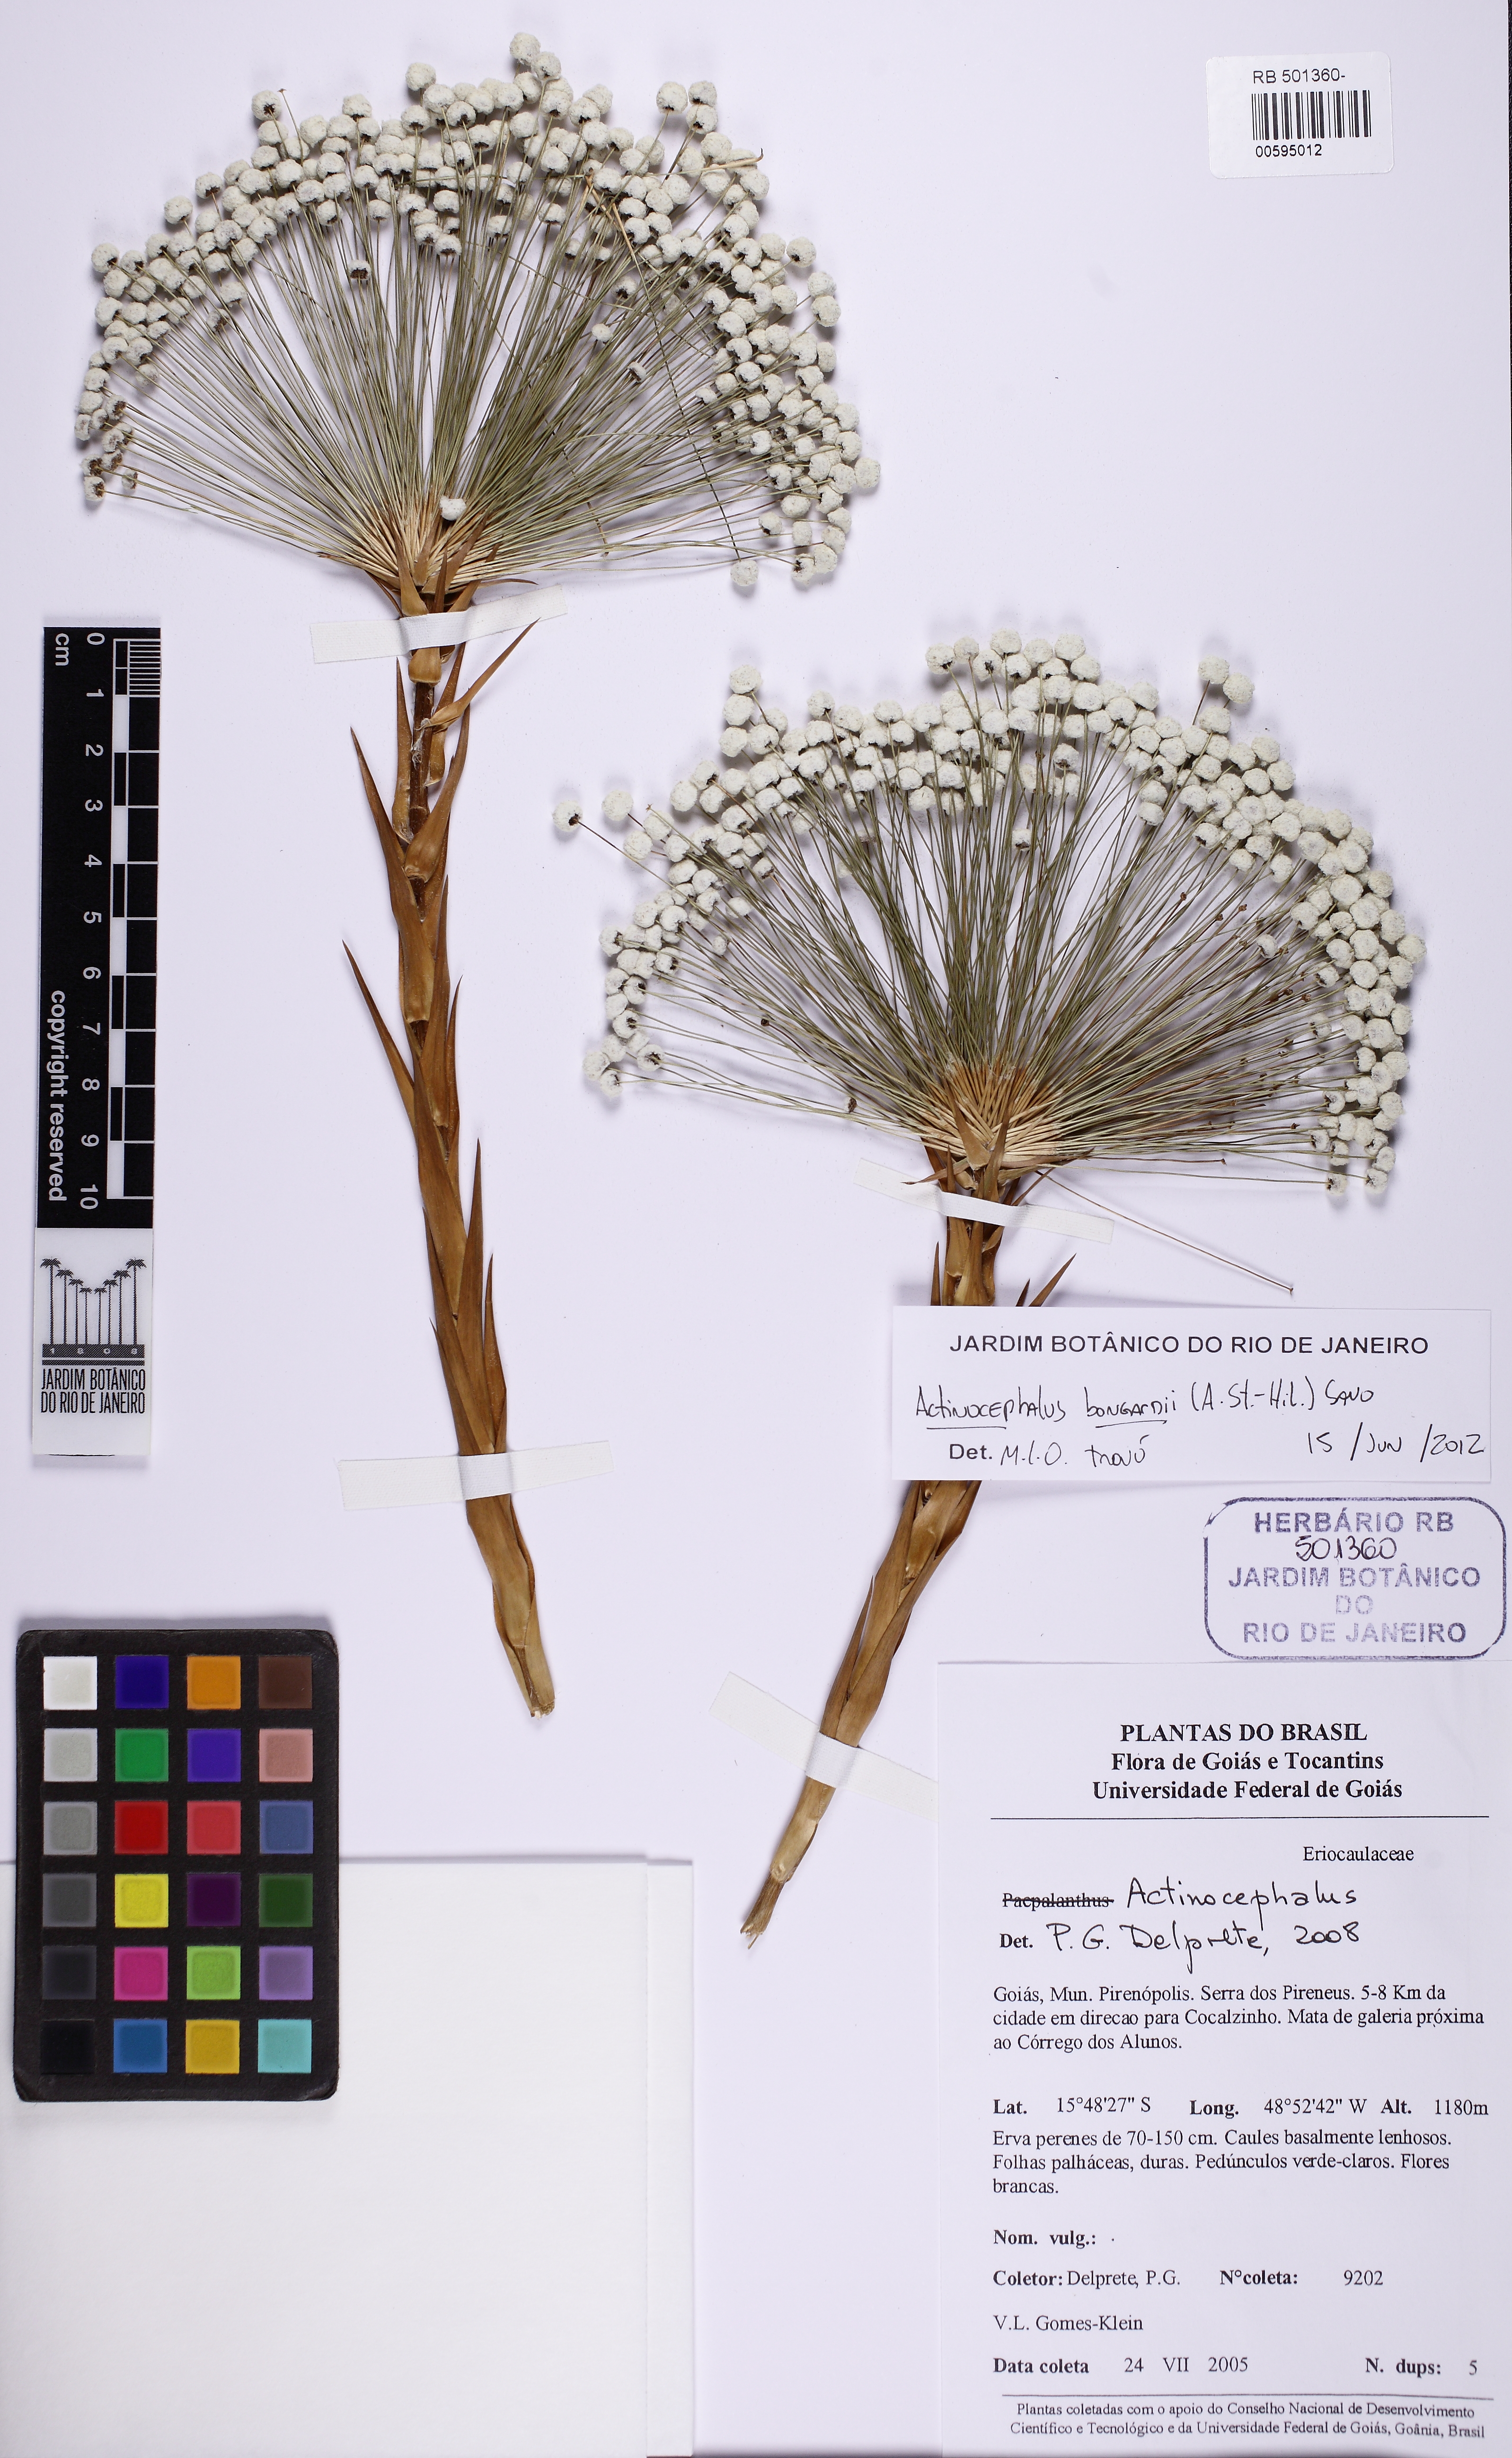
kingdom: Plantae
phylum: Tracheophyta
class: Liliopsida
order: Poales
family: Eriocaulaceae
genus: Paepalanthus
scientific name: Paepalanthus hilairei
